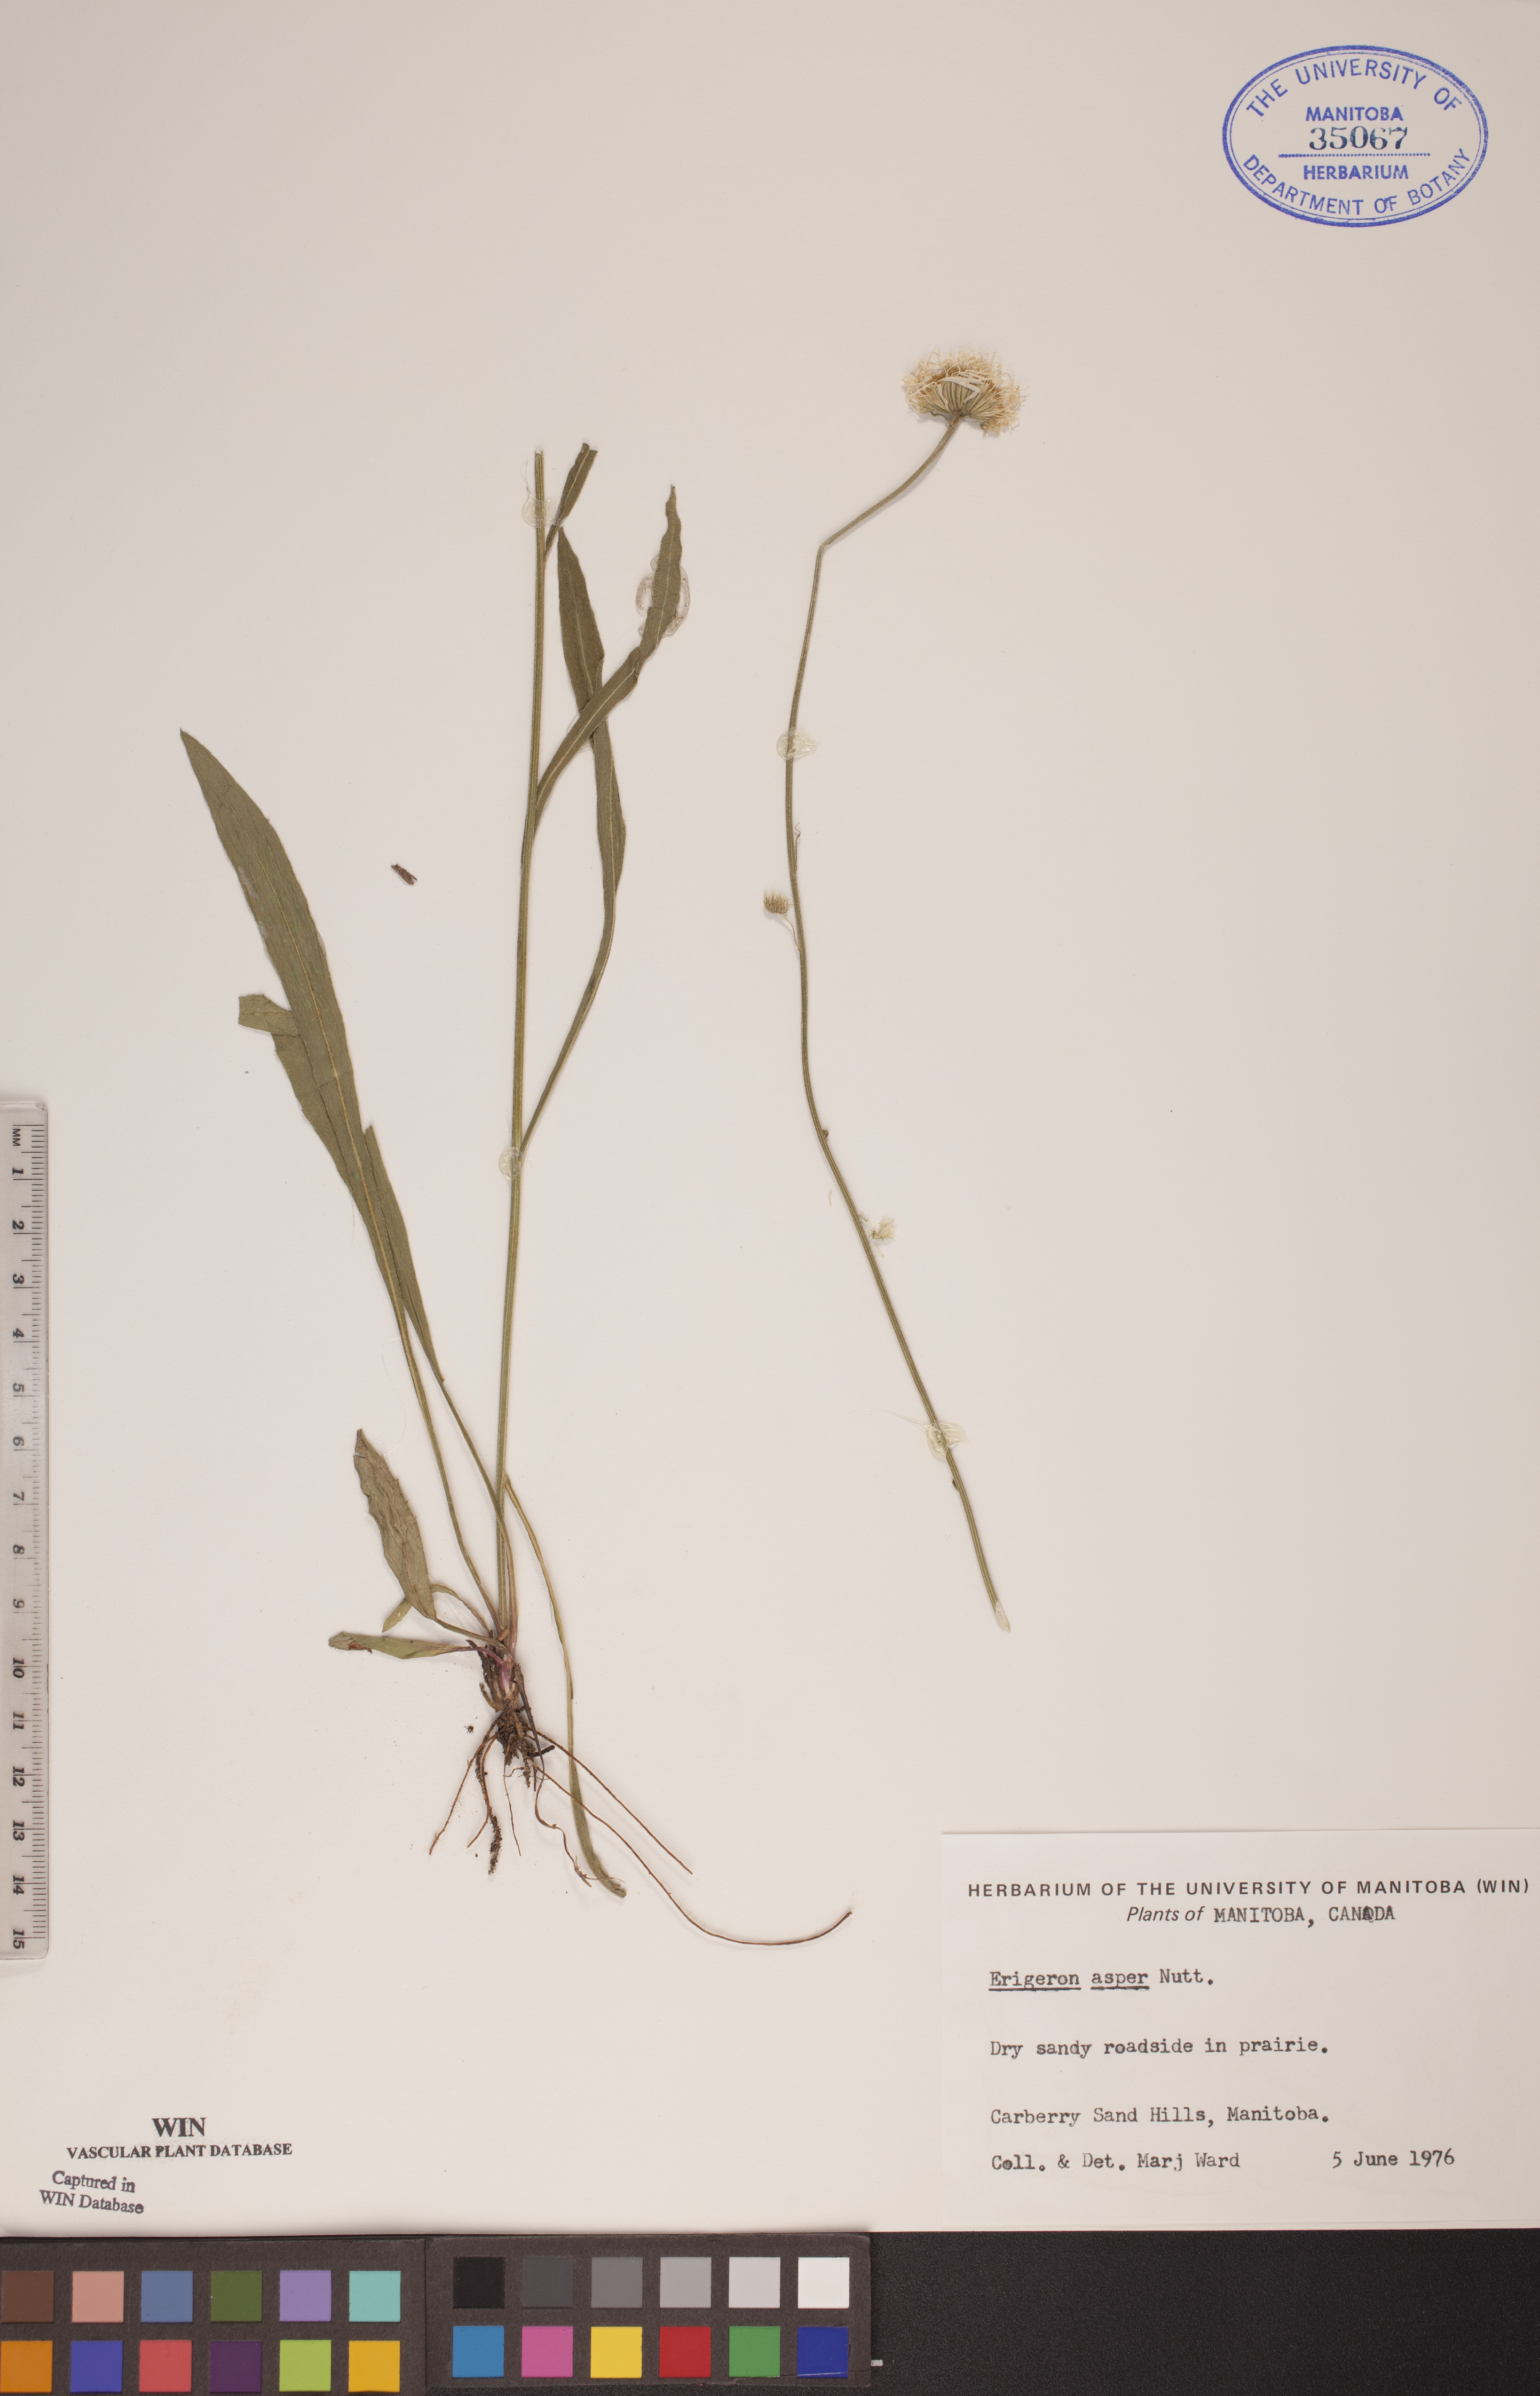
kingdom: Plantae
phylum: Tracheophyta
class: Magnoliopsida
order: Asterales
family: Asteraceae
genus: Erigeron
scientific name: Erigeron glabellus
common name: Smooth fleabane
